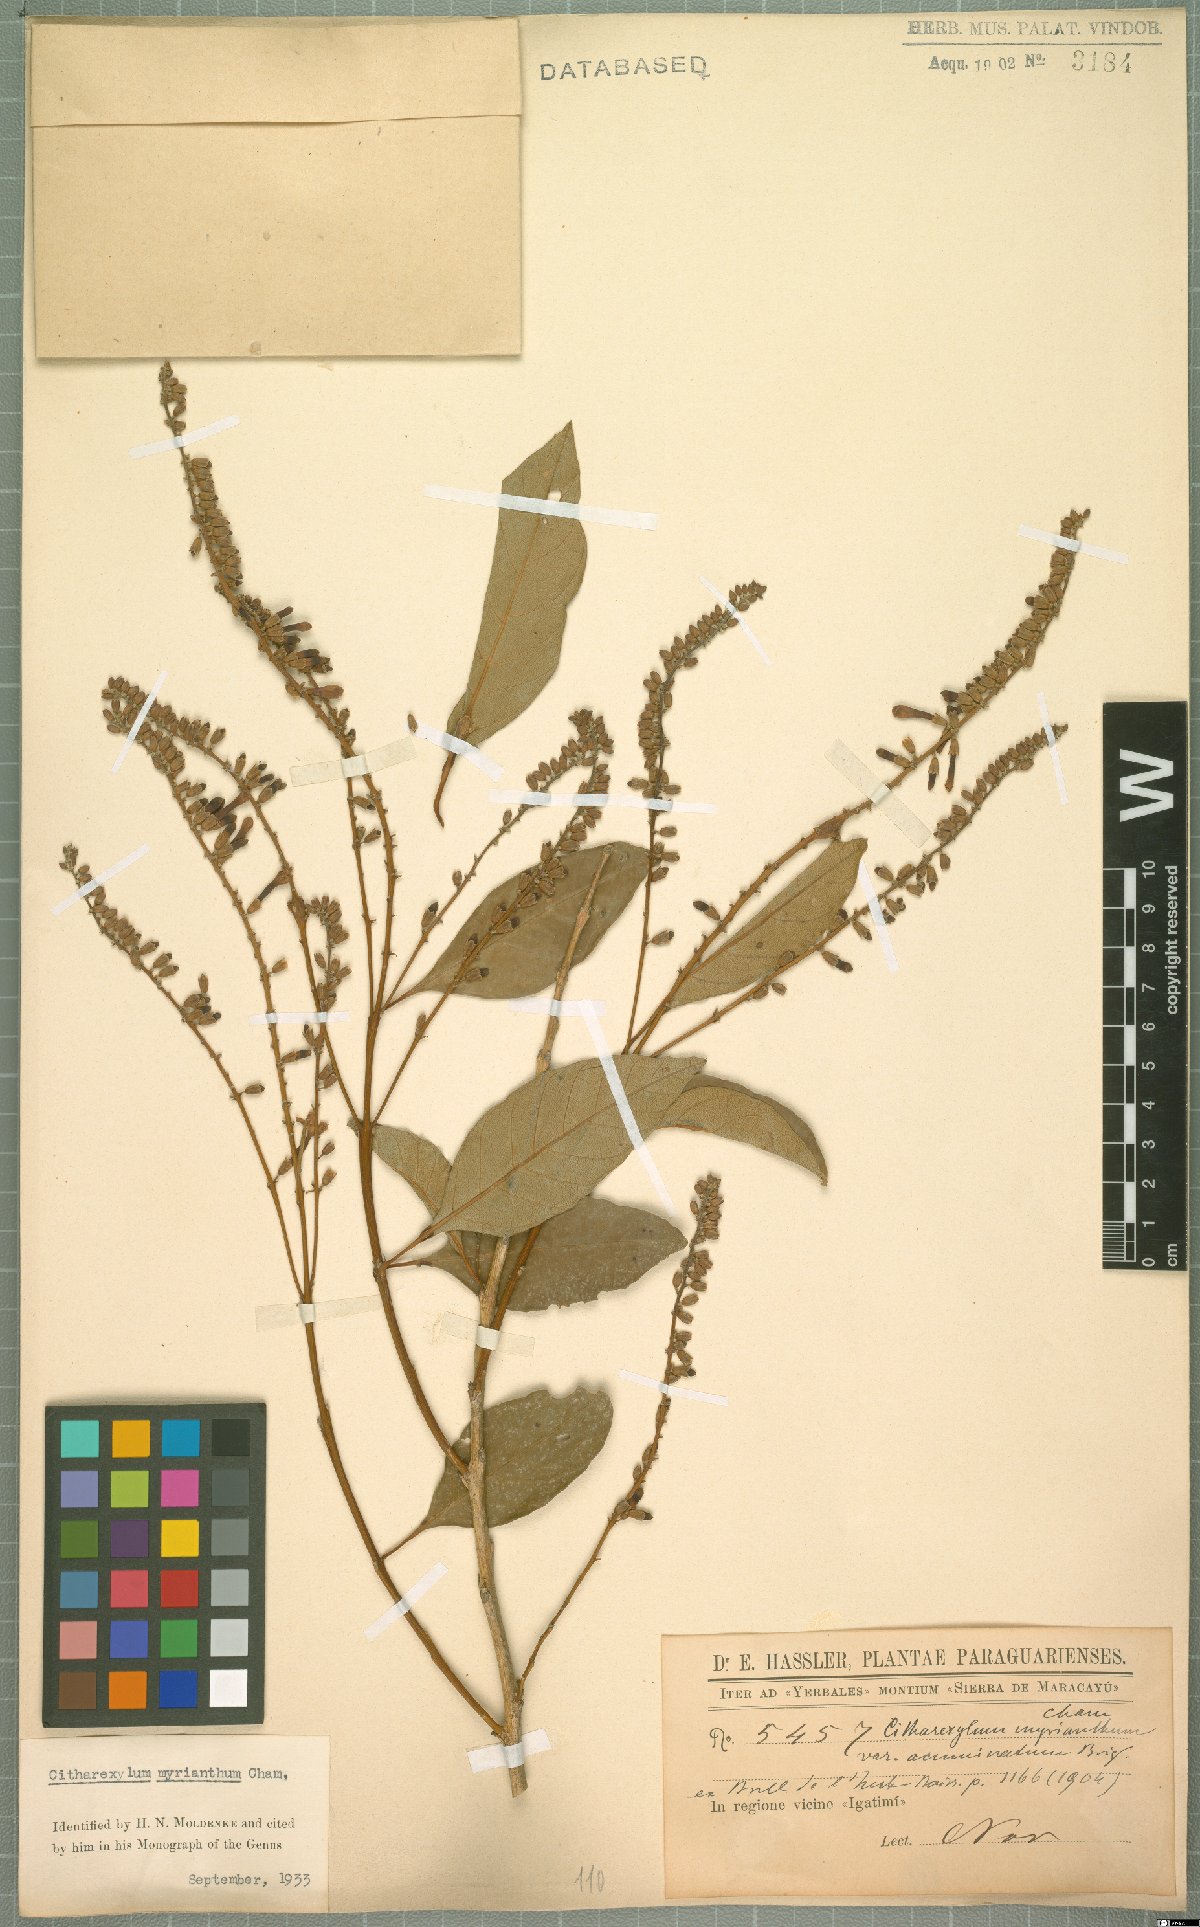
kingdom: Plantae
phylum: Tracheophyta
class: Magnoliopsida
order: Lamiales
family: Verbenaceae
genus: Citharexylum
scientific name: Citharexylum myrianthum
